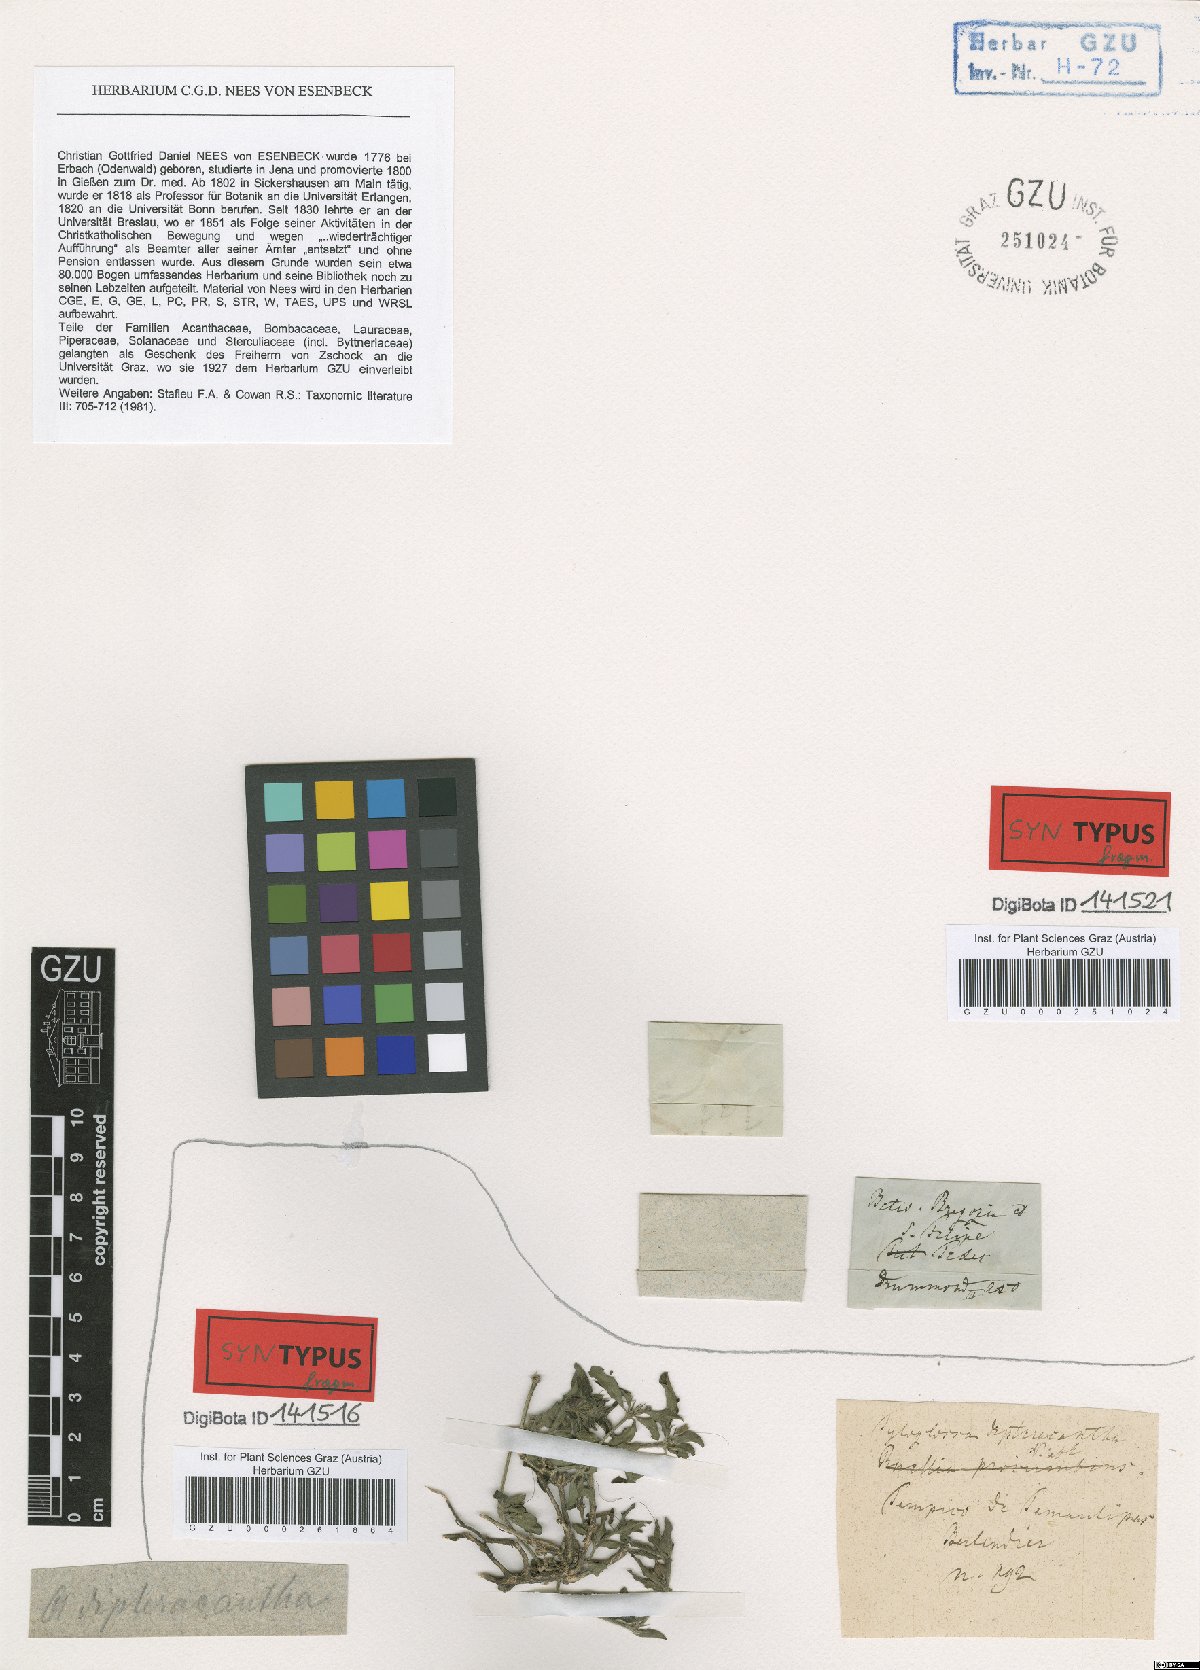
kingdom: Plantae
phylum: Tracheophyta
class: Magnoliopsida
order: Lamiales
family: Acanthaceae
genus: Justicia
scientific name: Justicia pilosella
